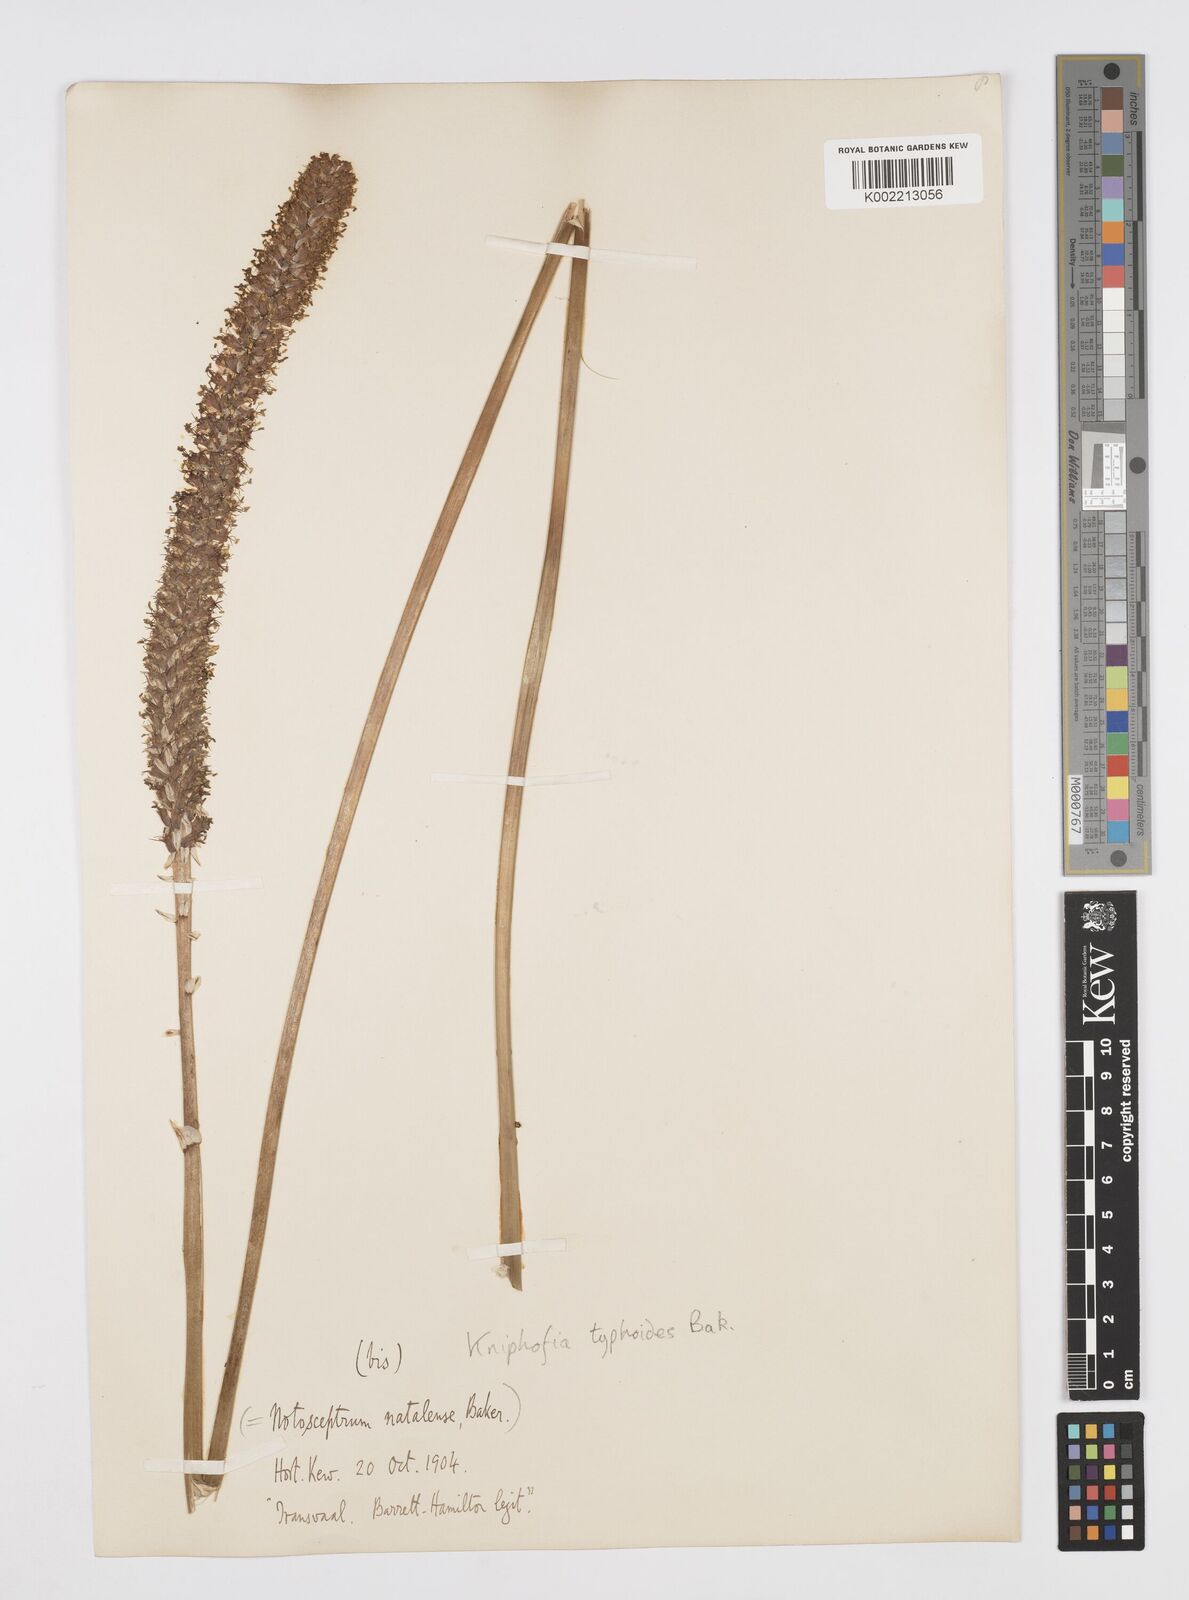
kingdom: Plantae
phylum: Tracheophyta
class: Liliopsida
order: Asparagales
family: Asphodelaceae
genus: Kniphofia
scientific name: Kniphofia typhoides
